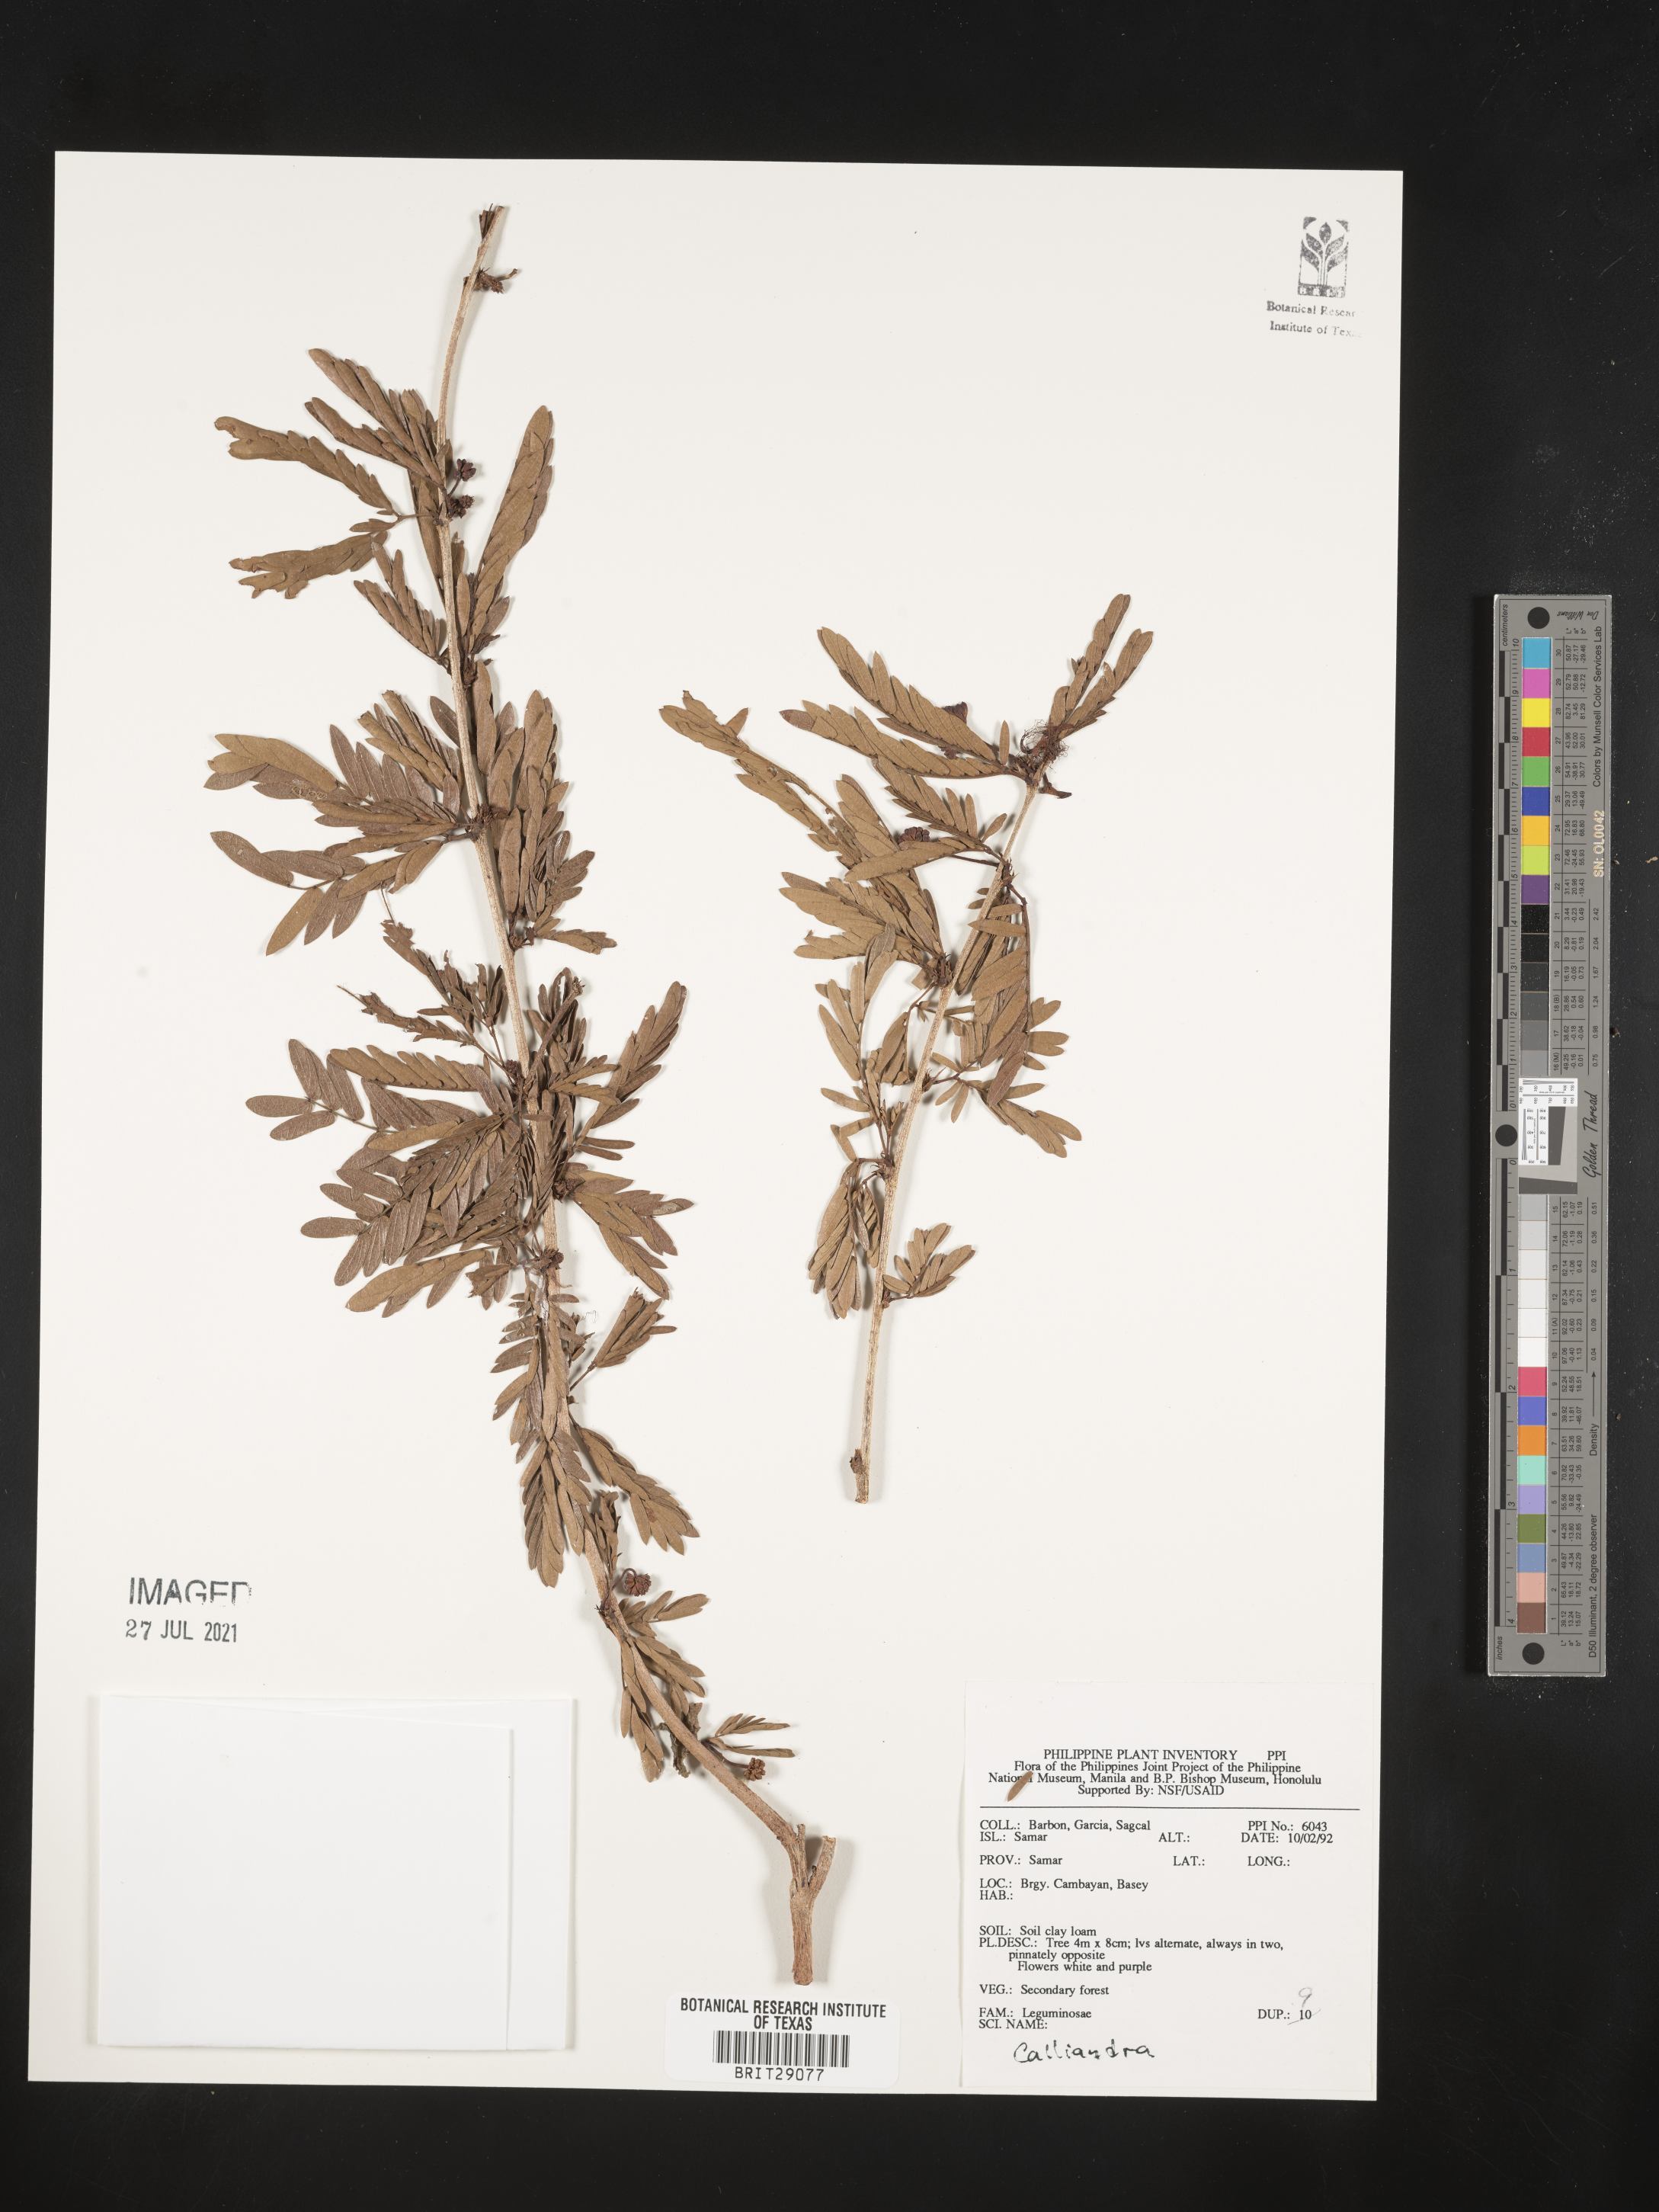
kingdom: Plantae
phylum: Tracheophyta
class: Magnoliopsida
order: Fabales
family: Fabaceae
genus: Calliandra
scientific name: Calliandra
